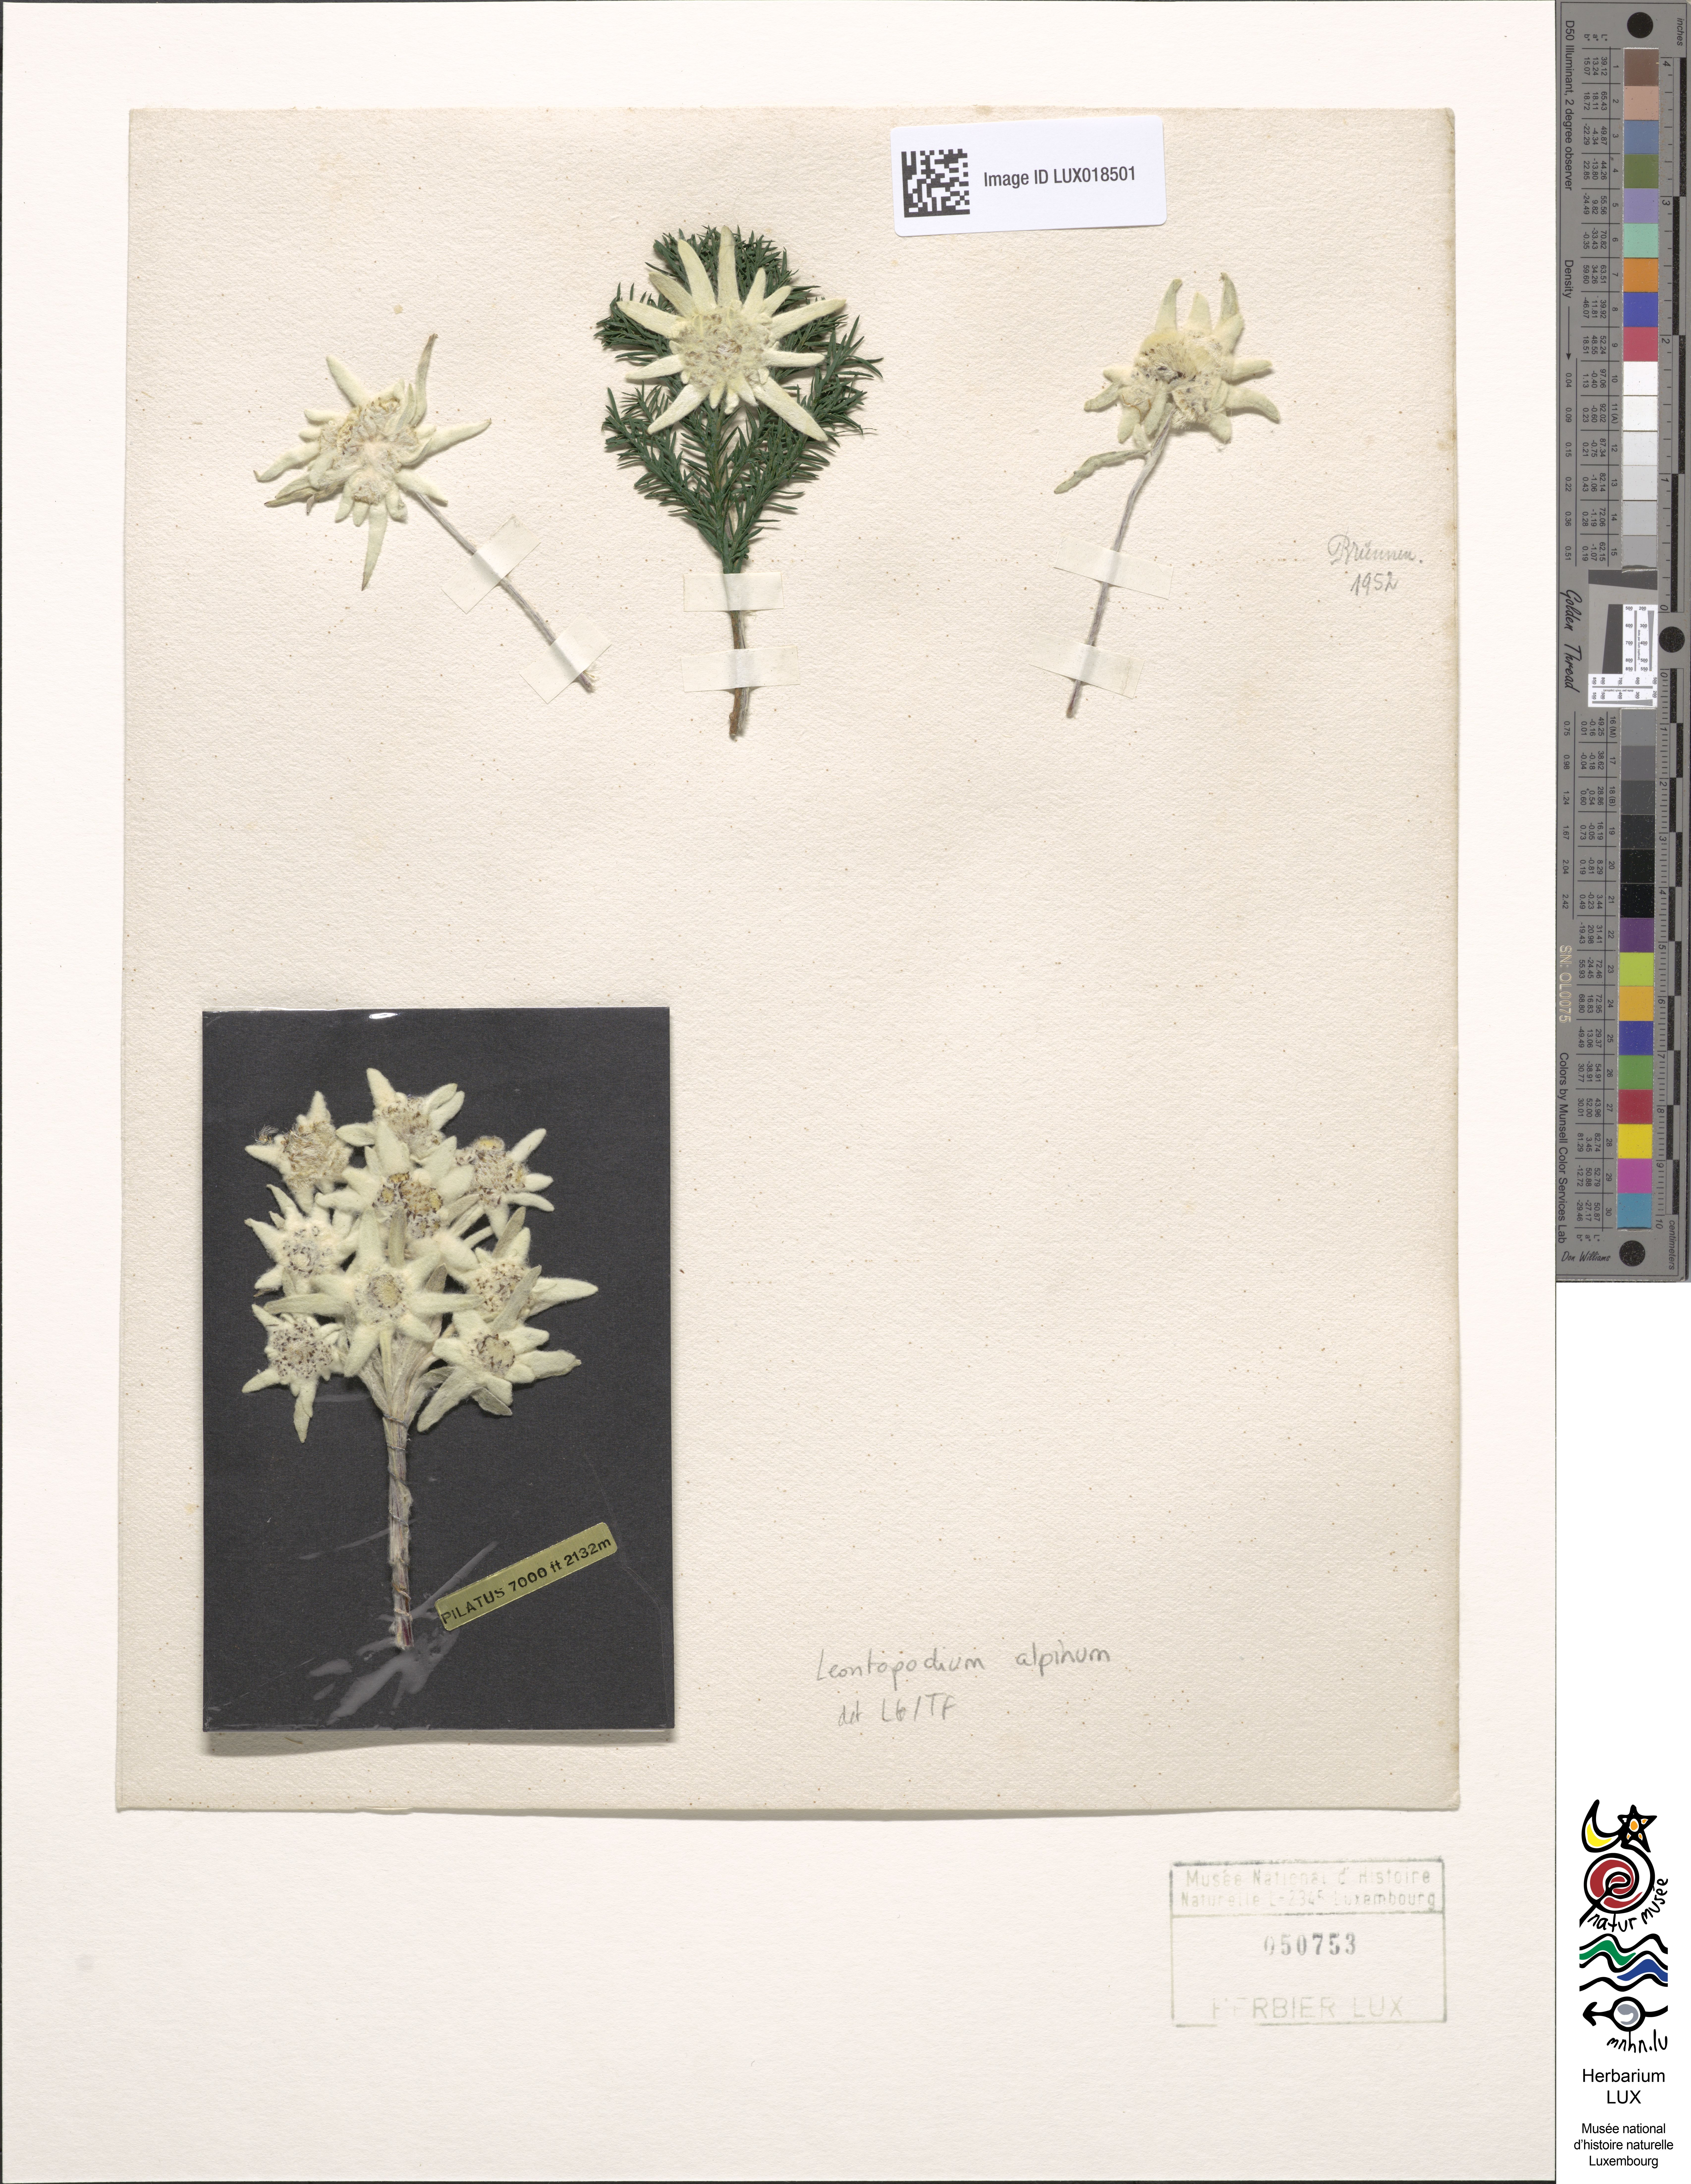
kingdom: Plantae
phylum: Tracheophyta
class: Magnoliopsida
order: Asterales
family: Asteraceae
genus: Leontopodium
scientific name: Leontopodium nivale
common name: Edelweiss
